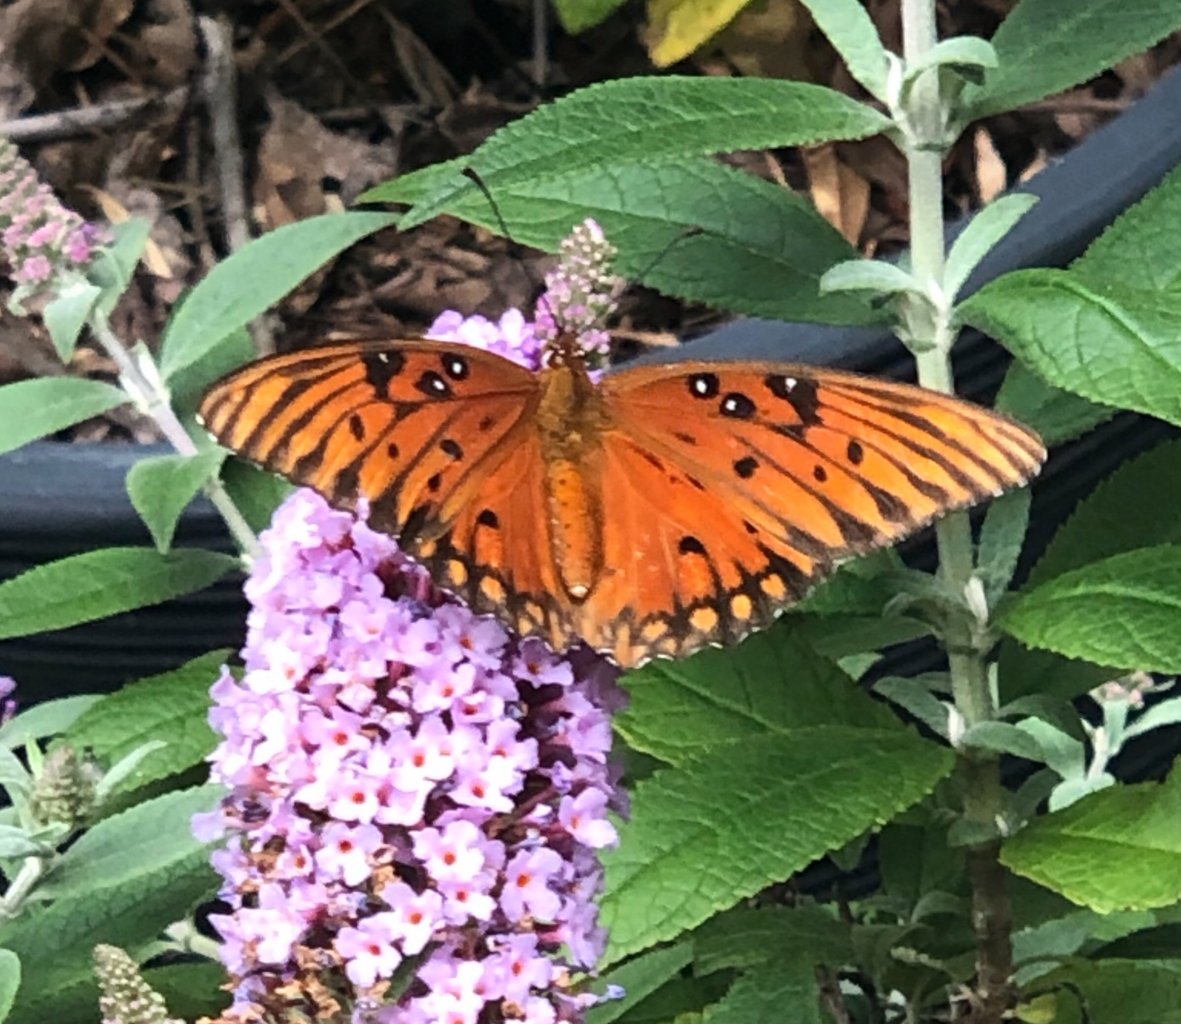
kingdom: Animalia
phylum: Arthropoda
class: Insecta
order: Lepidoptera
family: Nymphalidae
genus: Dione
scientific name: Dione vanillae
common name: Gulf Fritillary
